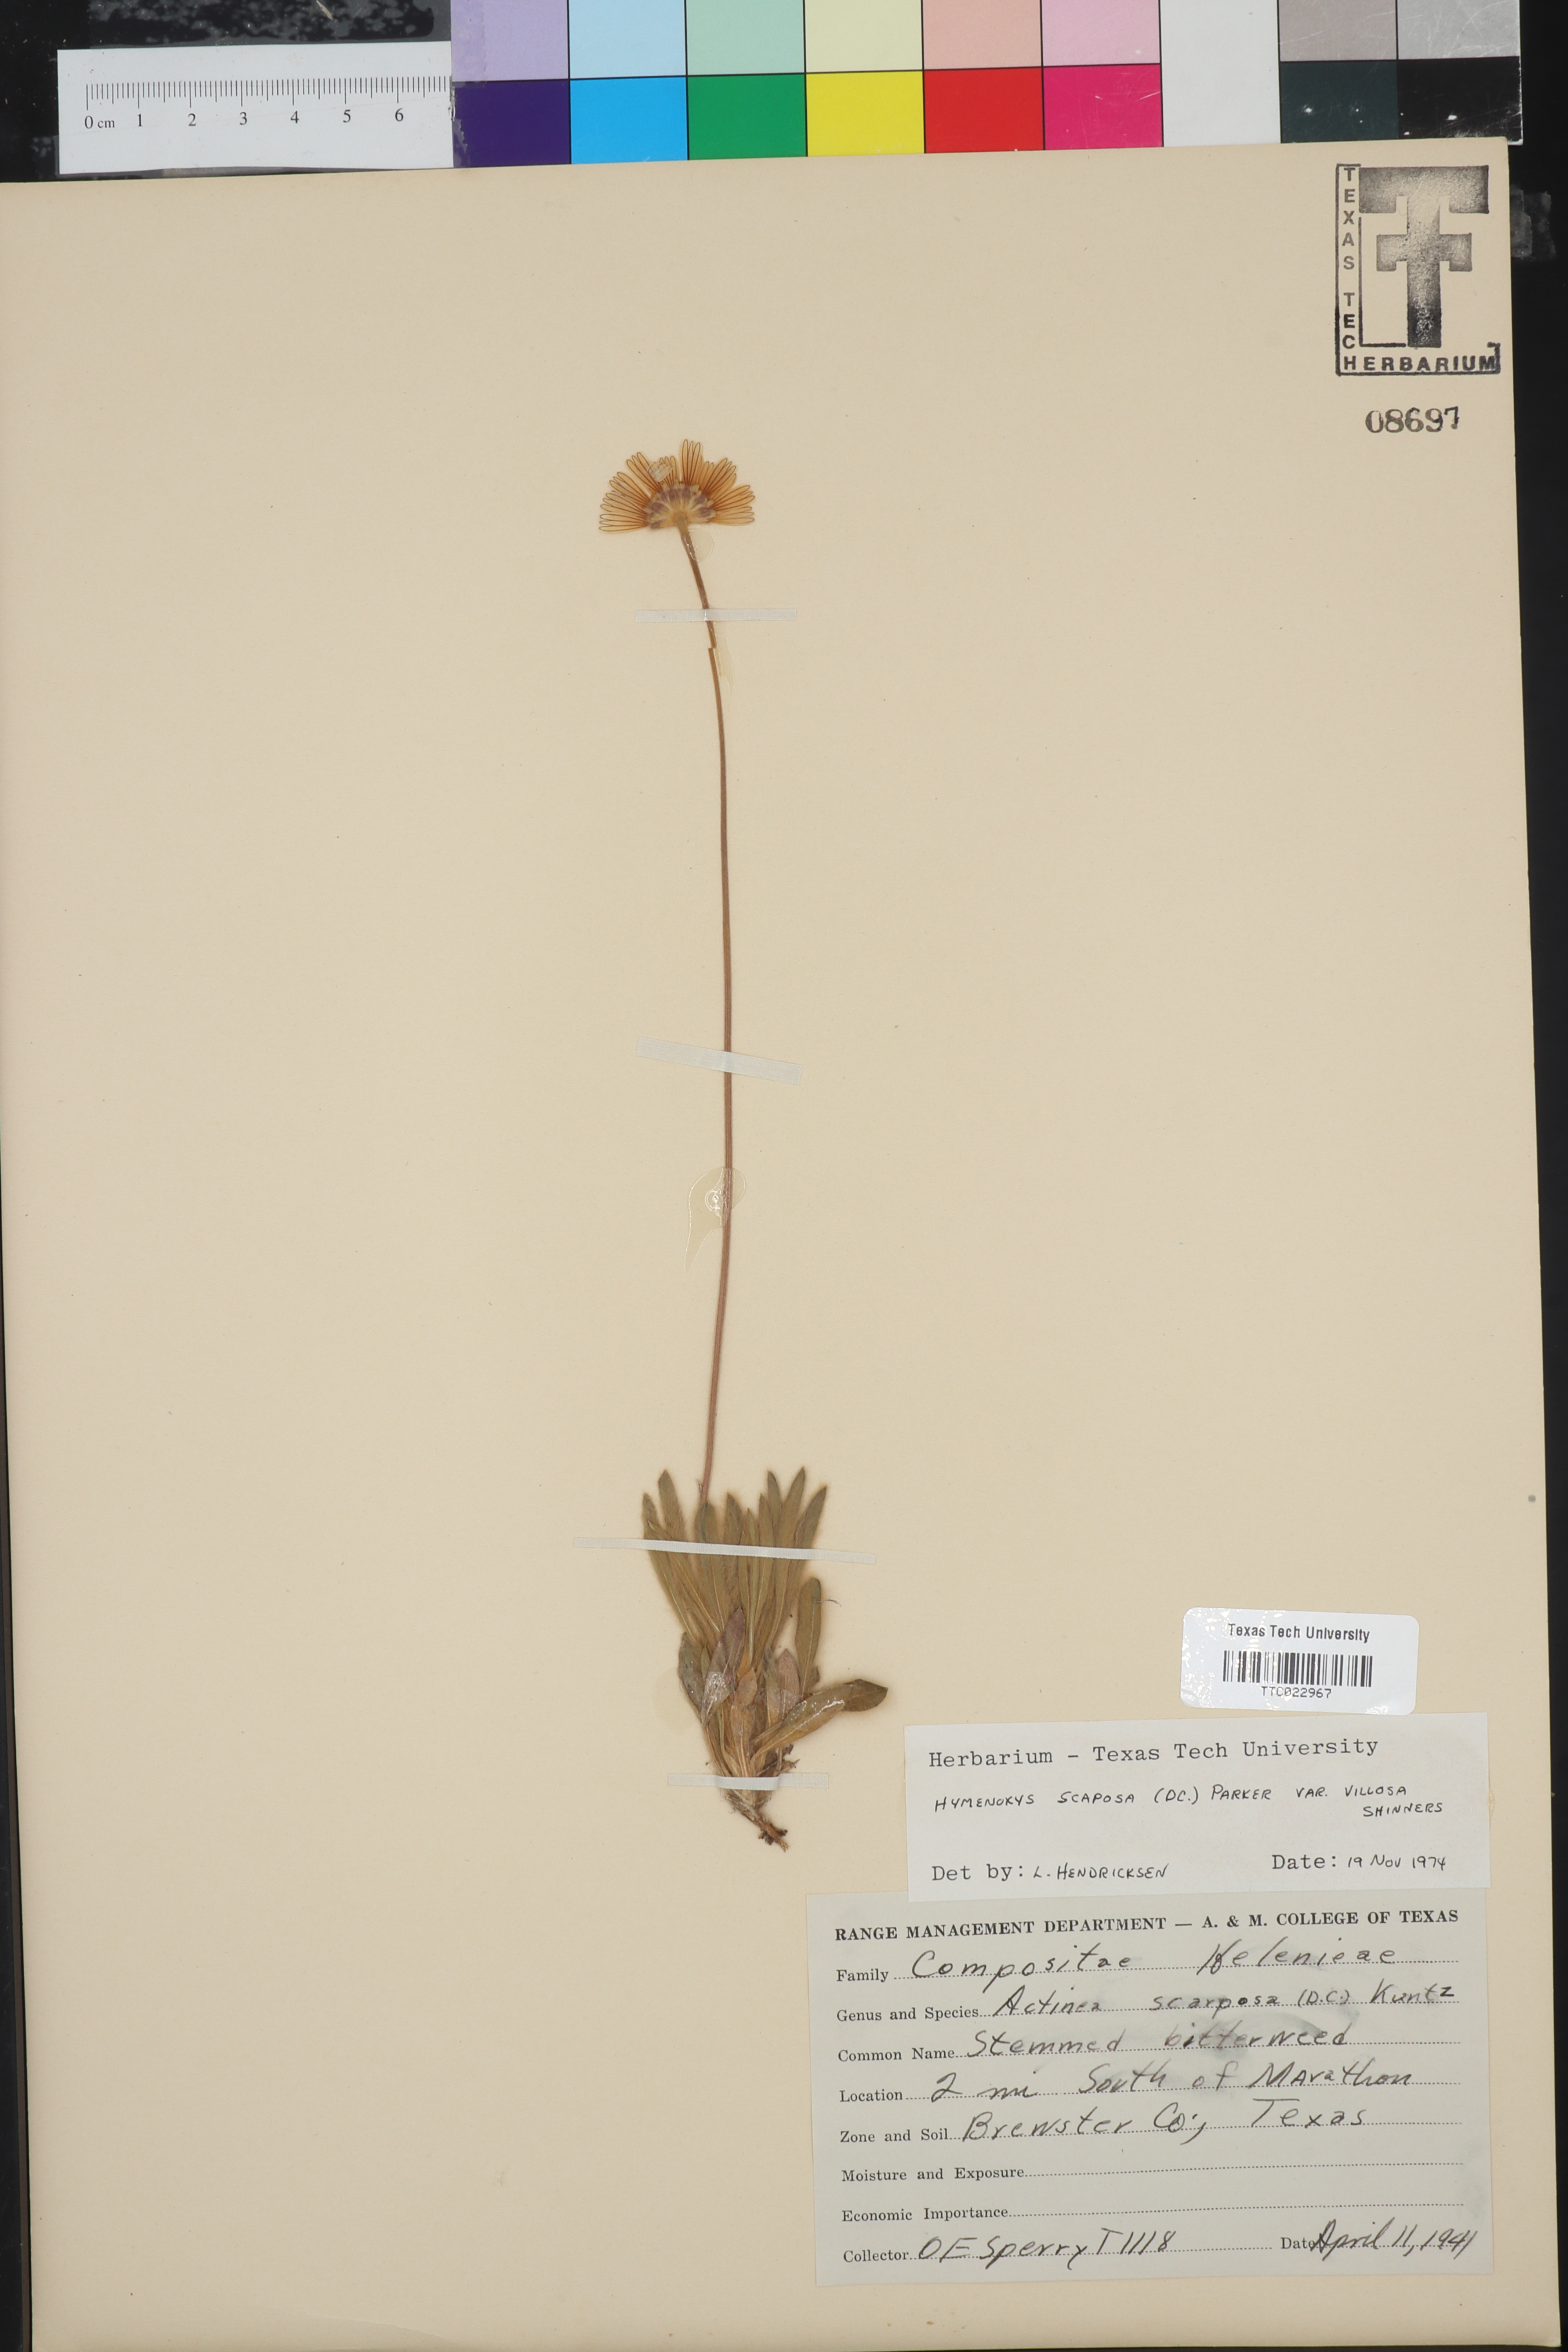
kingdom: Plantae
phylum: Tracheophyta
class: Magnoliopsida
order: Asterales
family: Asteraceae
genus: Tetraneuris
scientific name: Tetraneuris scaposa
